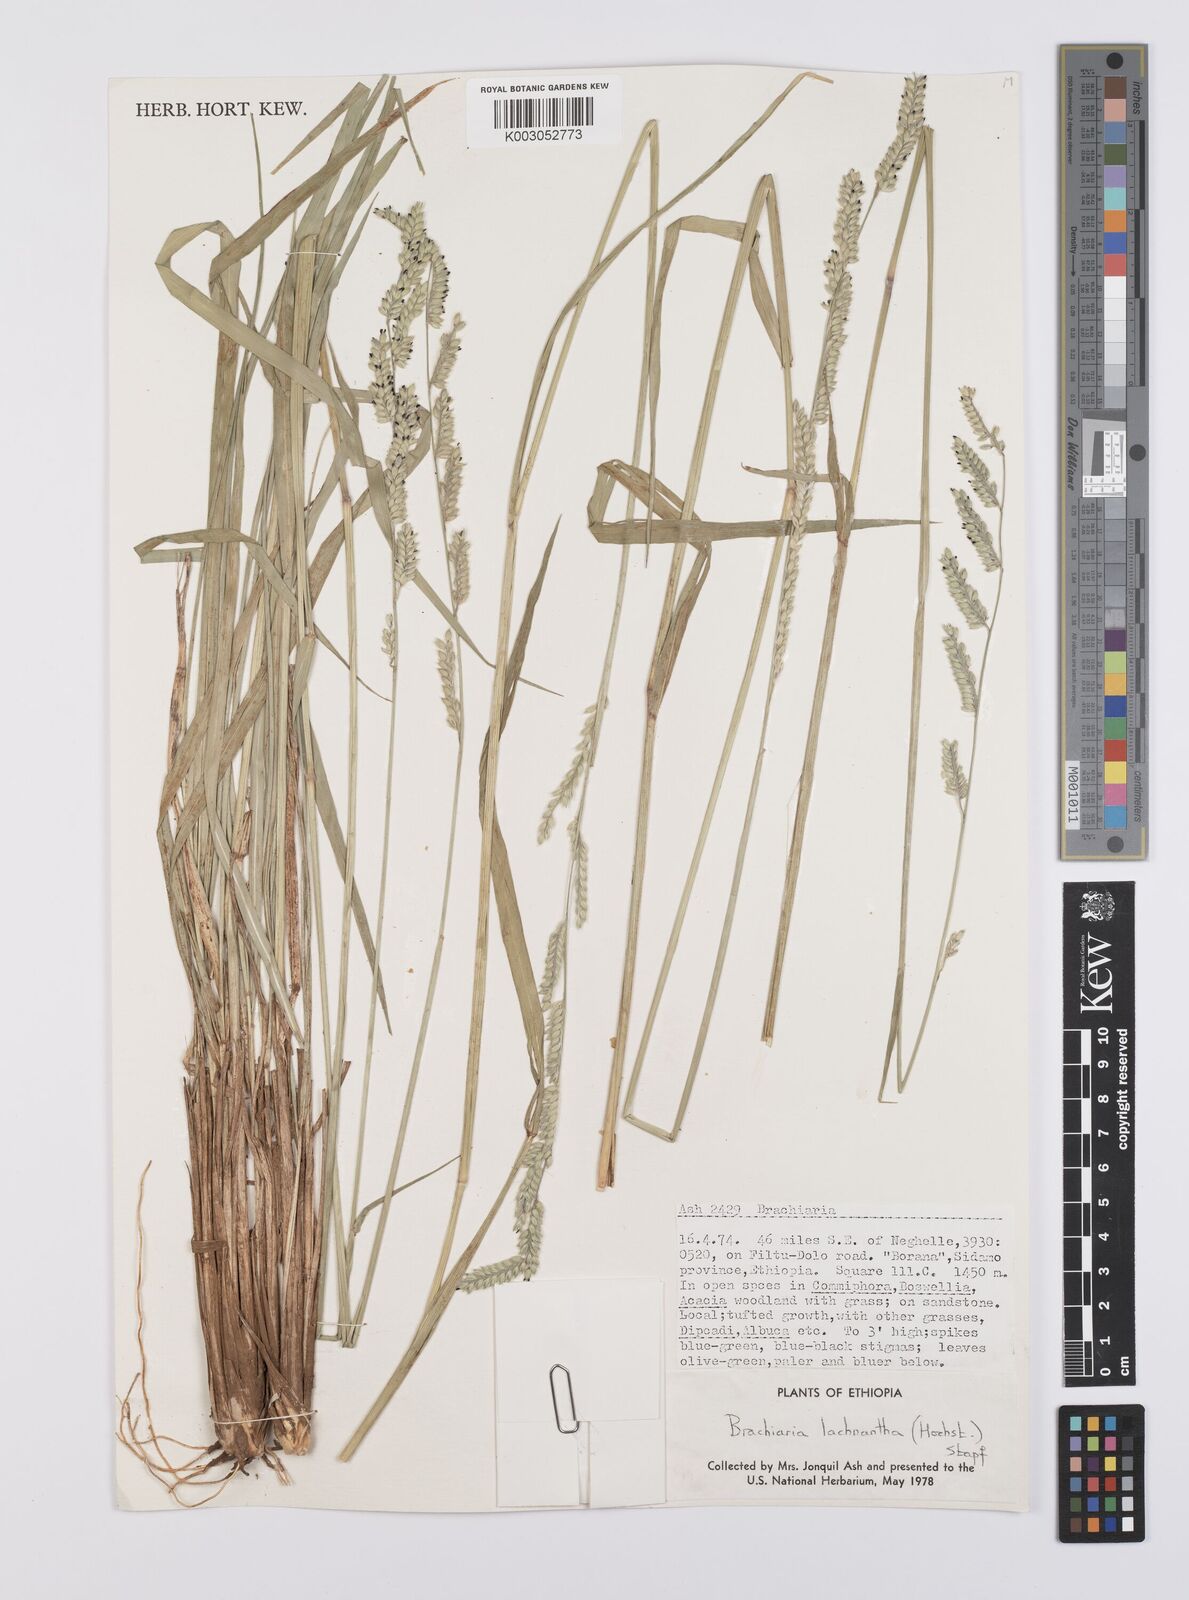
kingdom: Plantae
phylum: Tracheophyta
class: Liliopsida
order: Poales
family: Poaceae
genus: Urochloa
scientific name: Urochloa lachnantha
